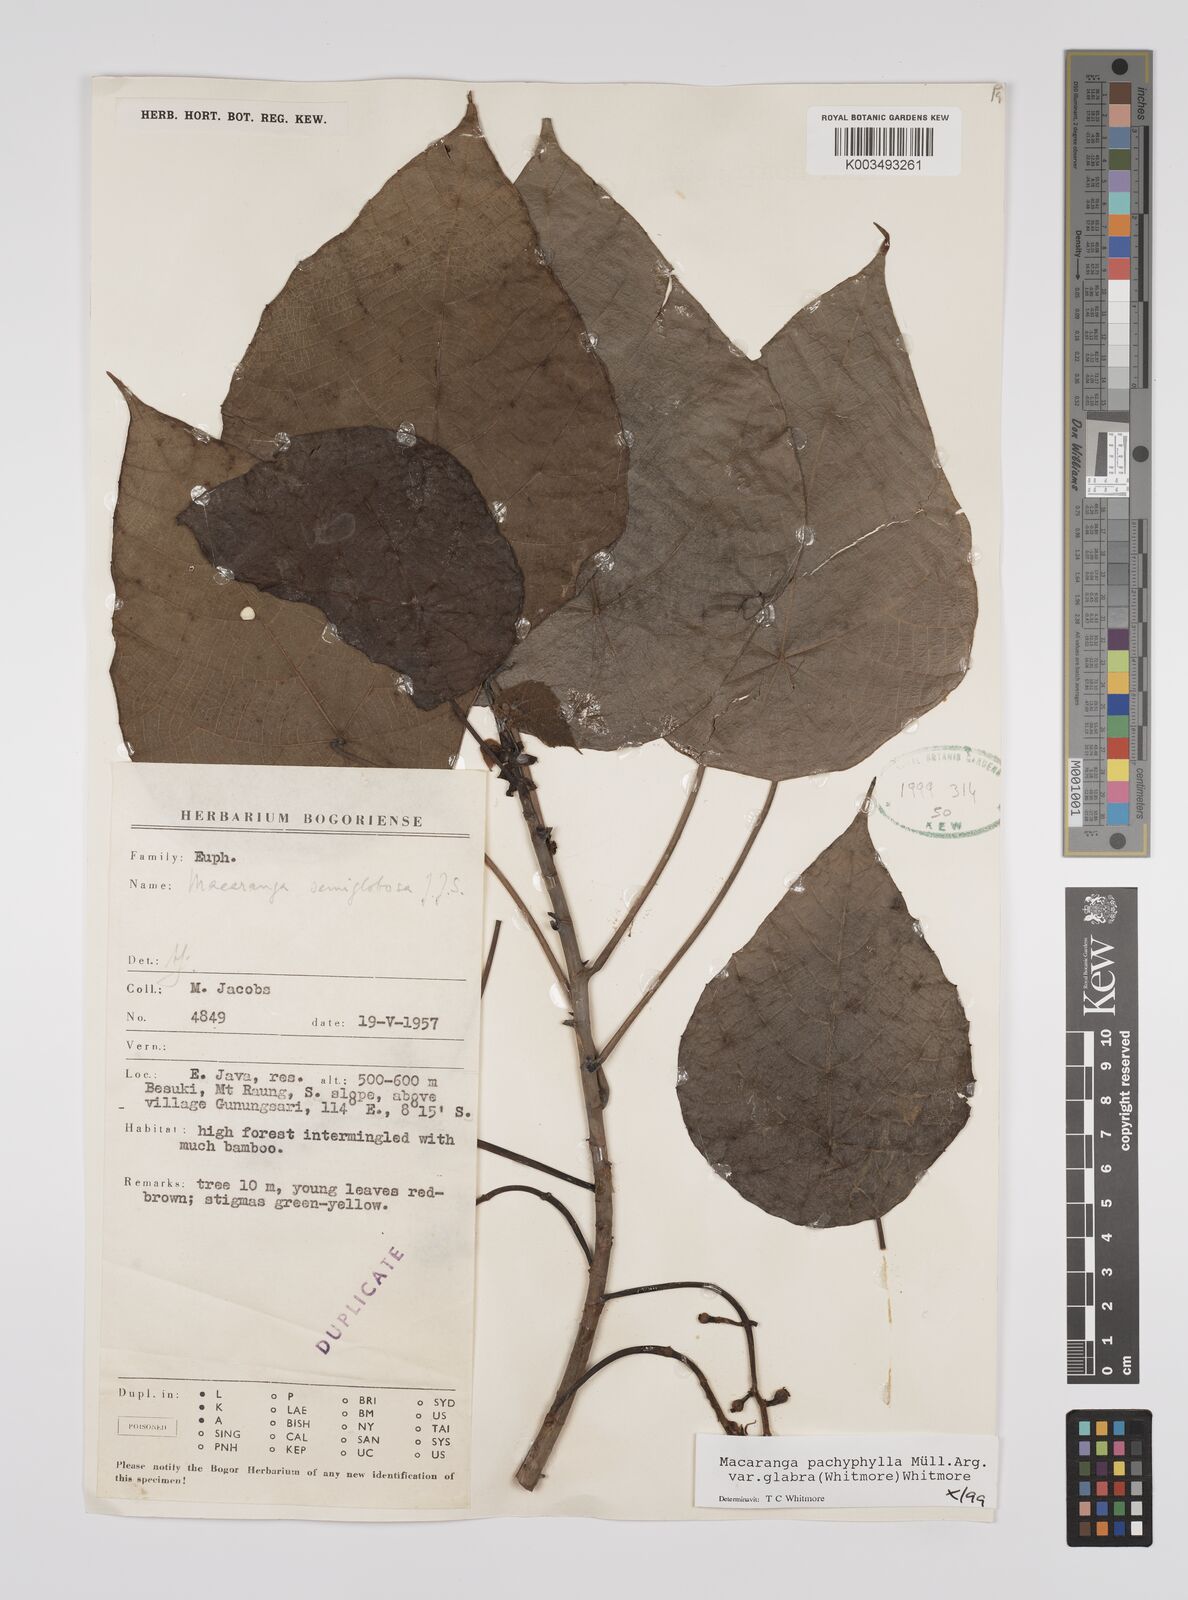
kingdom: Plantae
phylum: Tracheophyta
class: Magnoliopsida
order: Malpighiales
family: Euphorbiaceae
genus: Macaranga
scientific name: Macaranga pachyphylla
